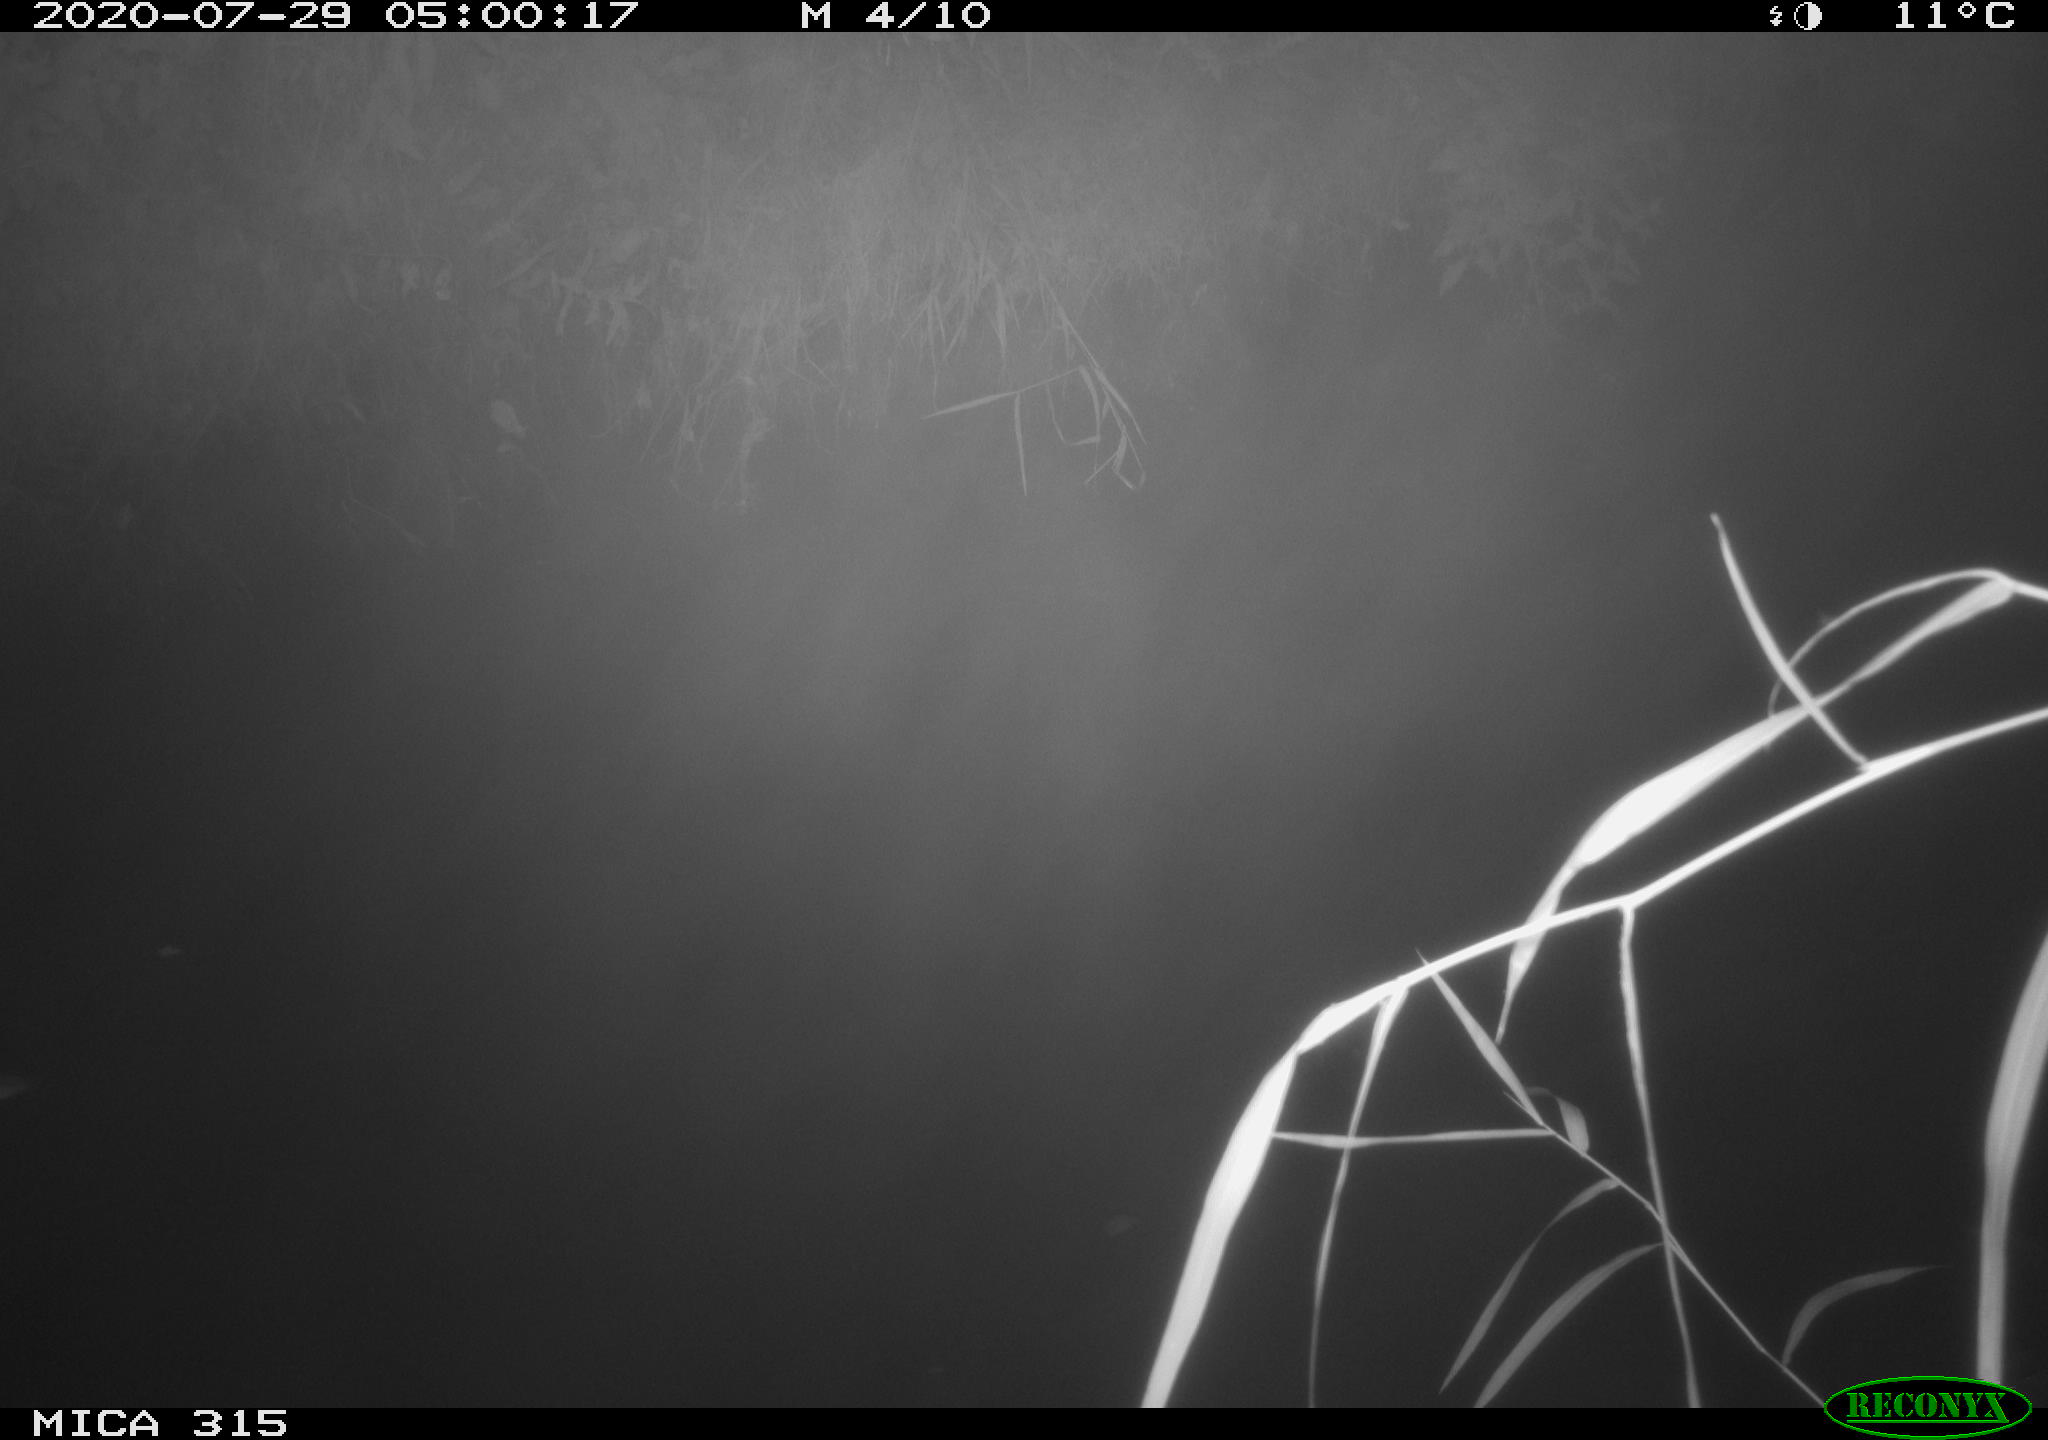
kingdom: Animalia
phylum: Chordata
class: Aves
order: Anseriformes
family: Anatidae
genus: Anas
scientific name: Anas platyrhynchos
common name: Mallard
